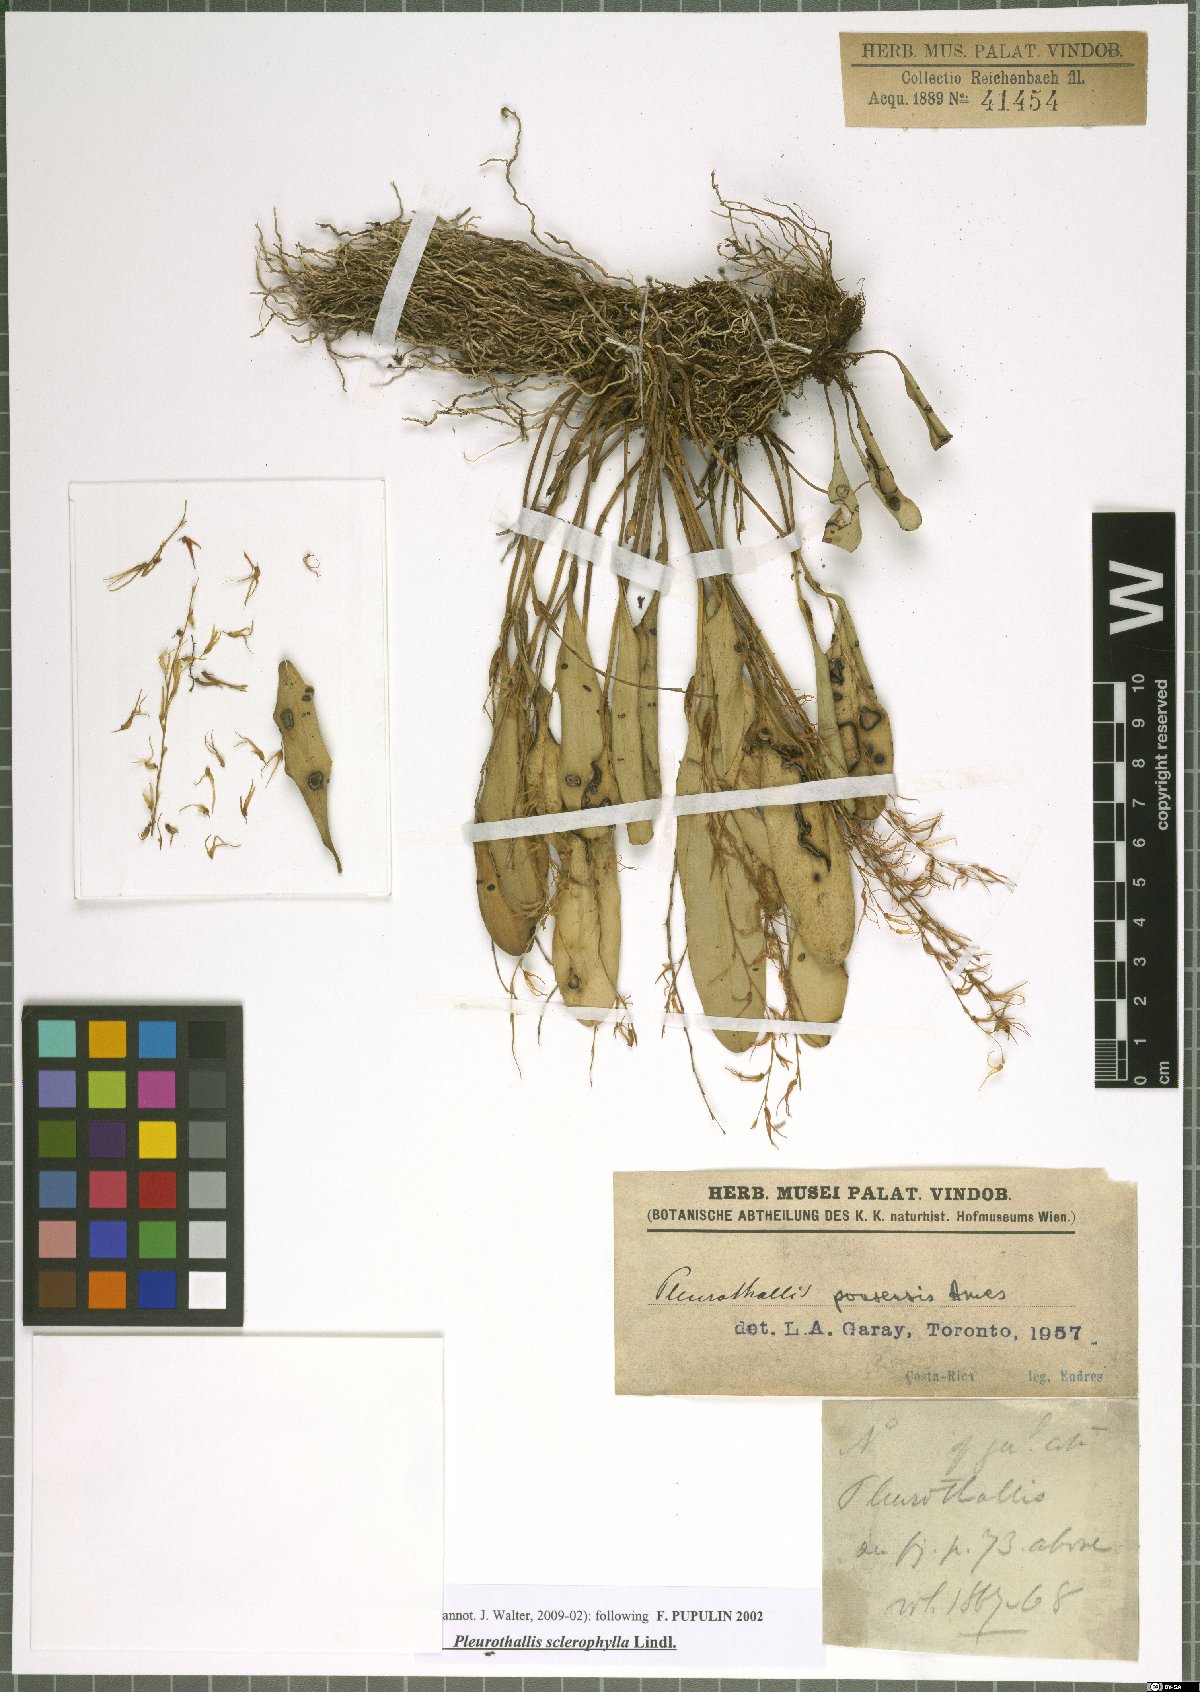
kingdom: Plantae
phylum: Tracheophyta
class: Liliopsida
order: Asparagales
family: Orchidaceae
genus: Stelis
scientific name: Stelis sclerophylla
